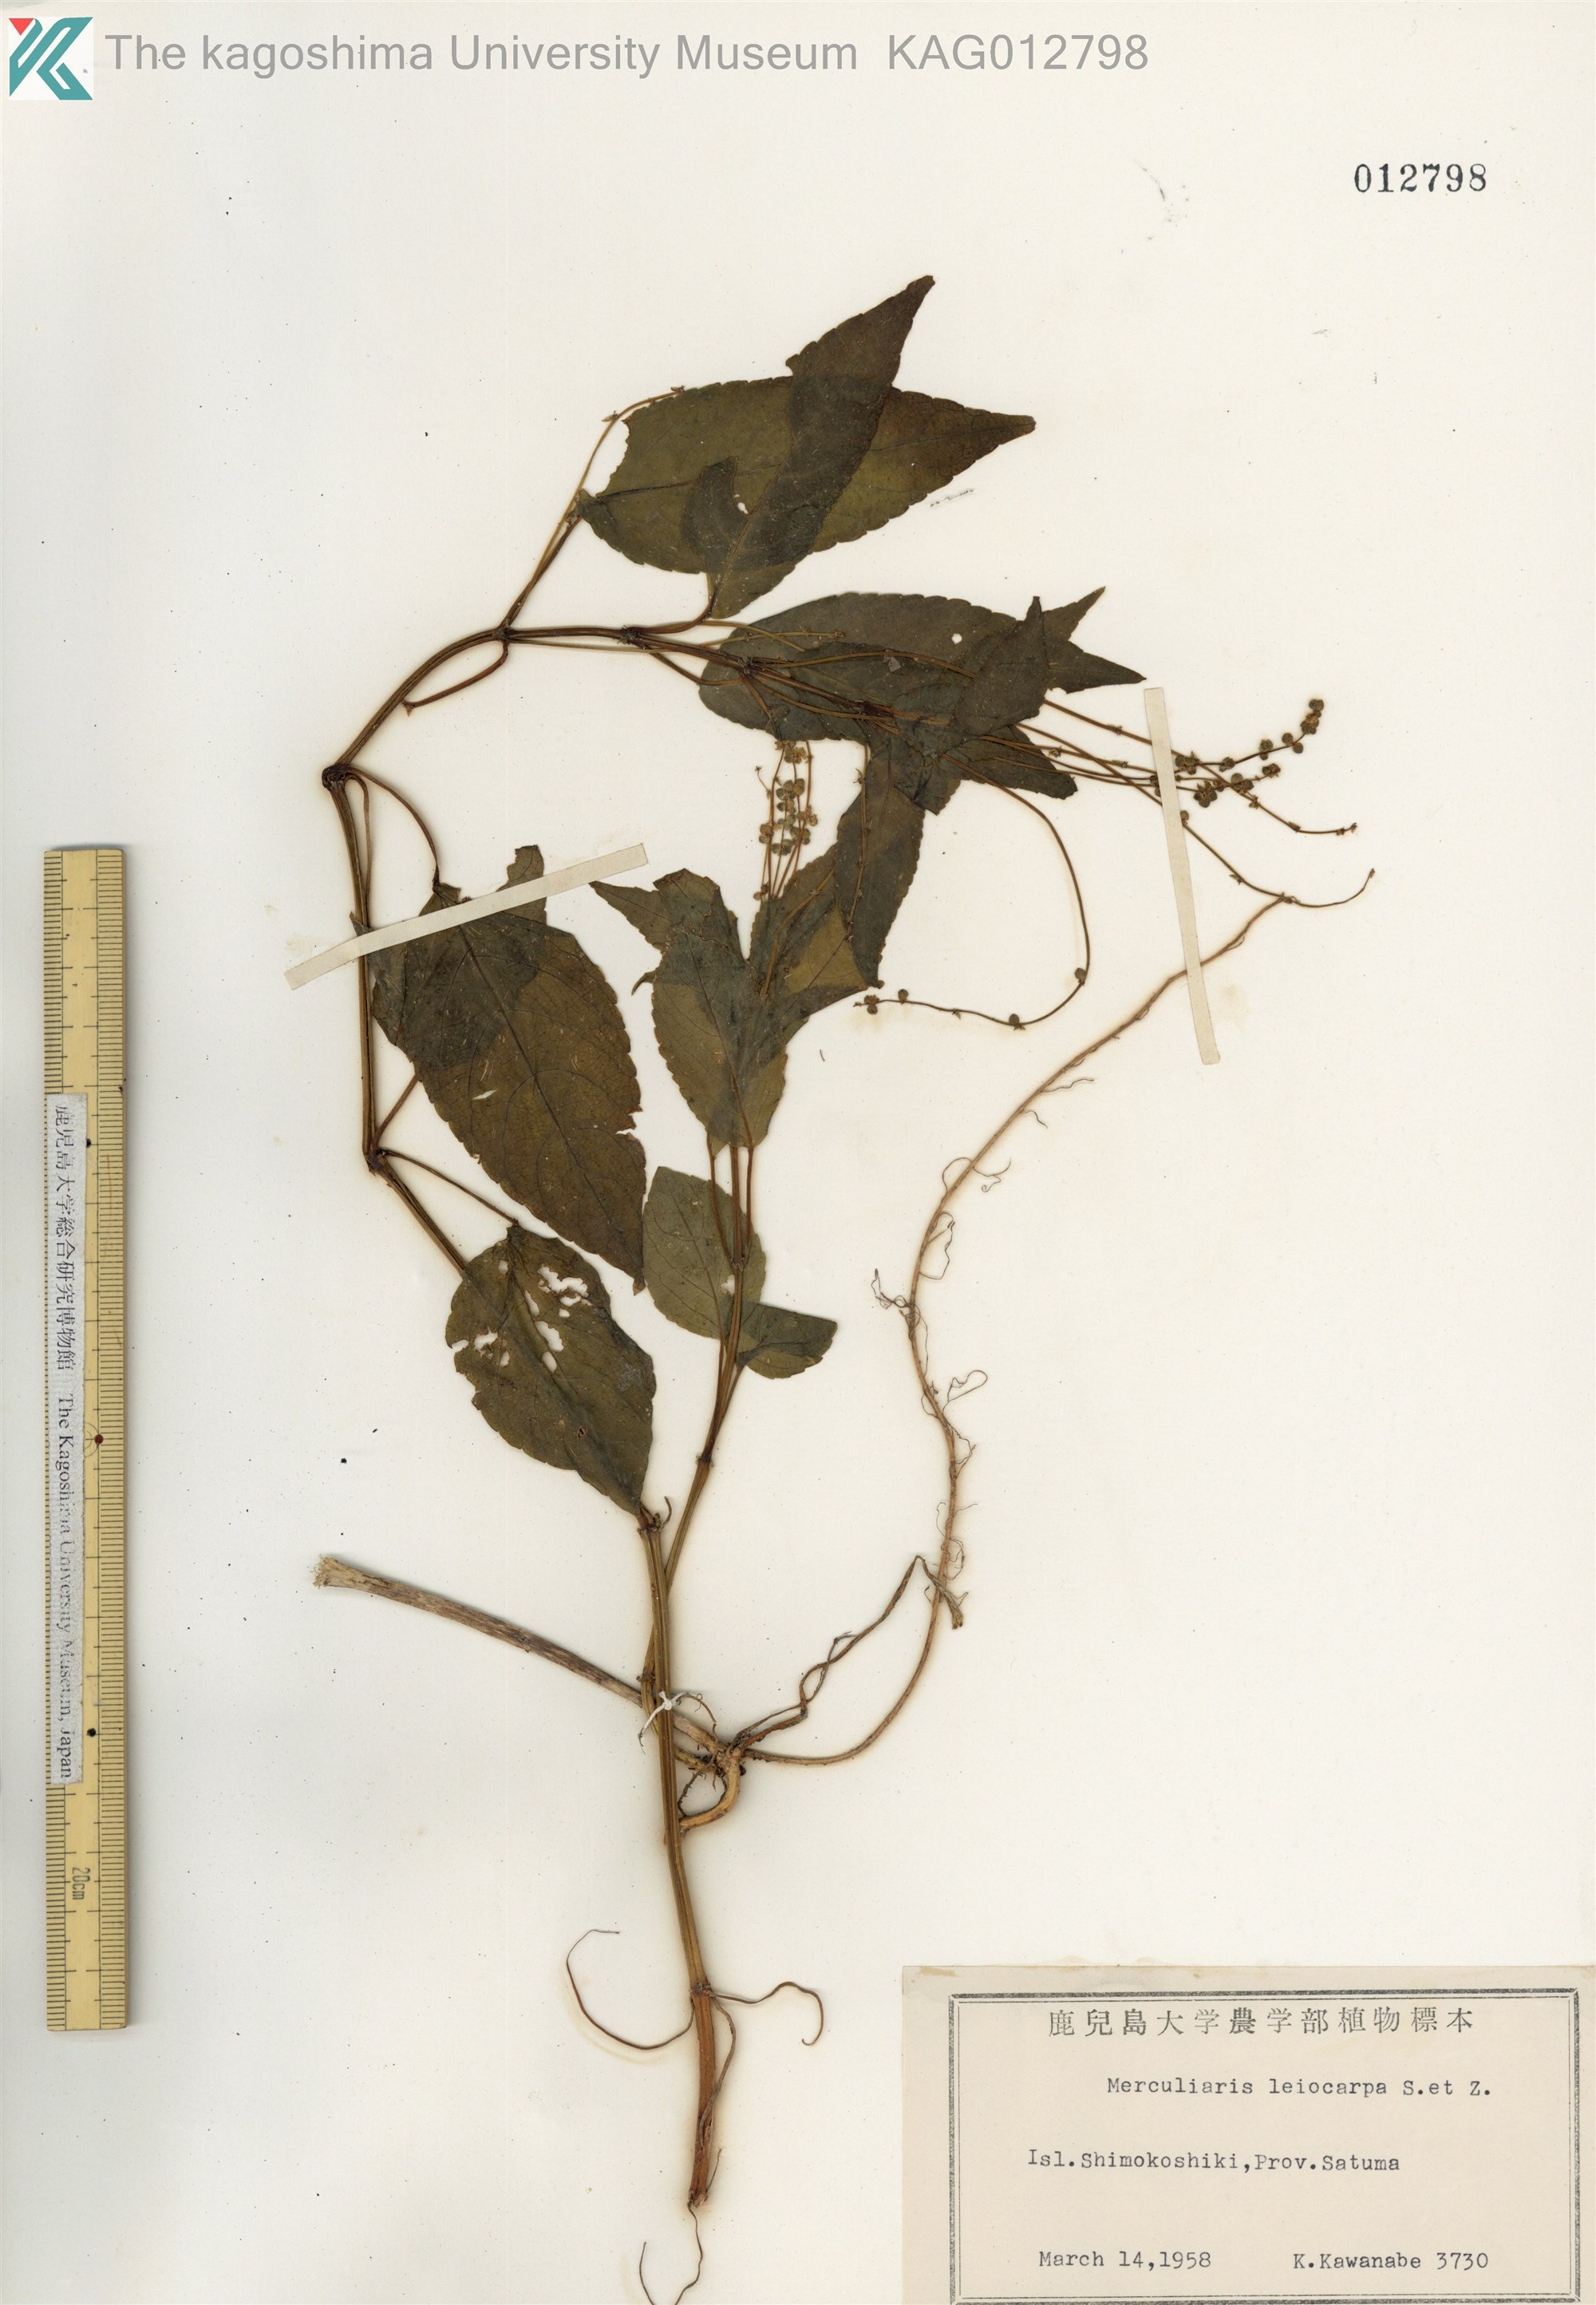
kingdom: Plantae
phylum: Tracheophyta
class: Magnoliopsida
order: Malpighiales
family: Euphorbiaceae
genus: Mercurialis
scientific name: Mercurialis leiocarpa
